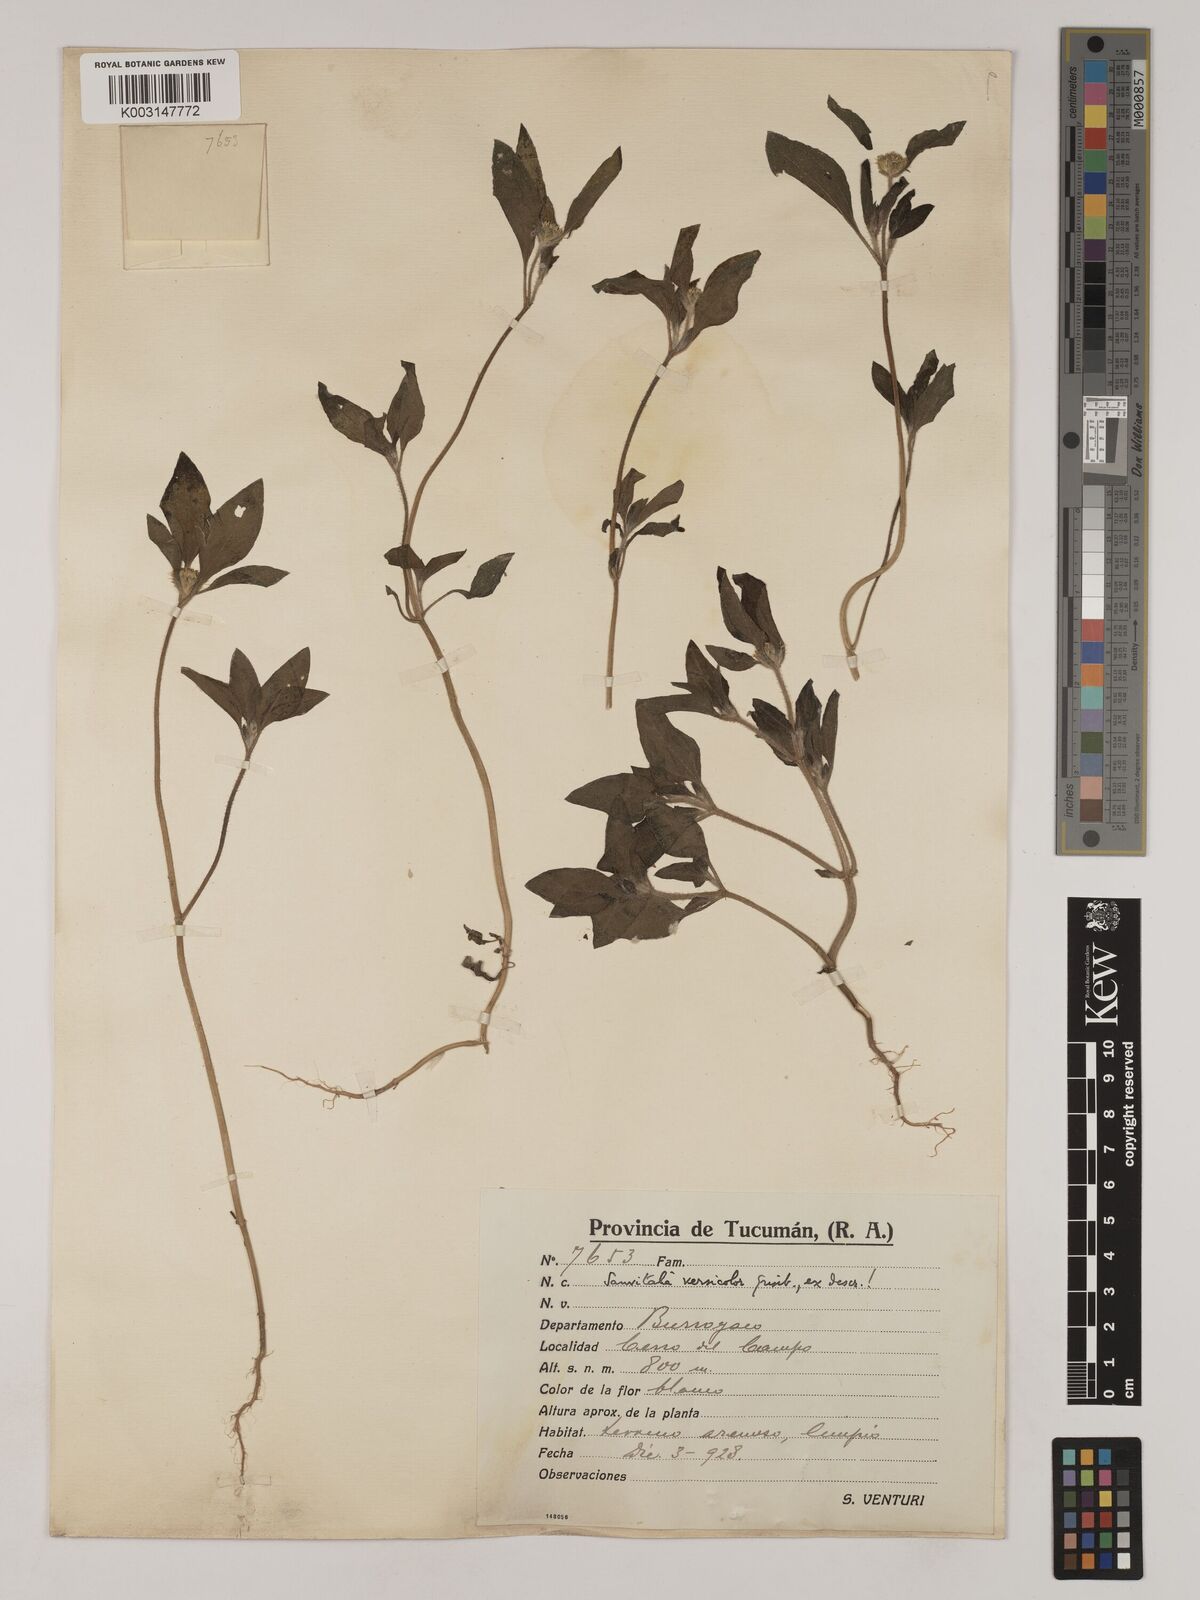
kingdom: Plantae
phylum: Tracheophyta
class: Magnoliopsida
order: Asterales
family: Asteraceae
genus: Sanvitalia
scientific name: Sanvitalia versicolor
